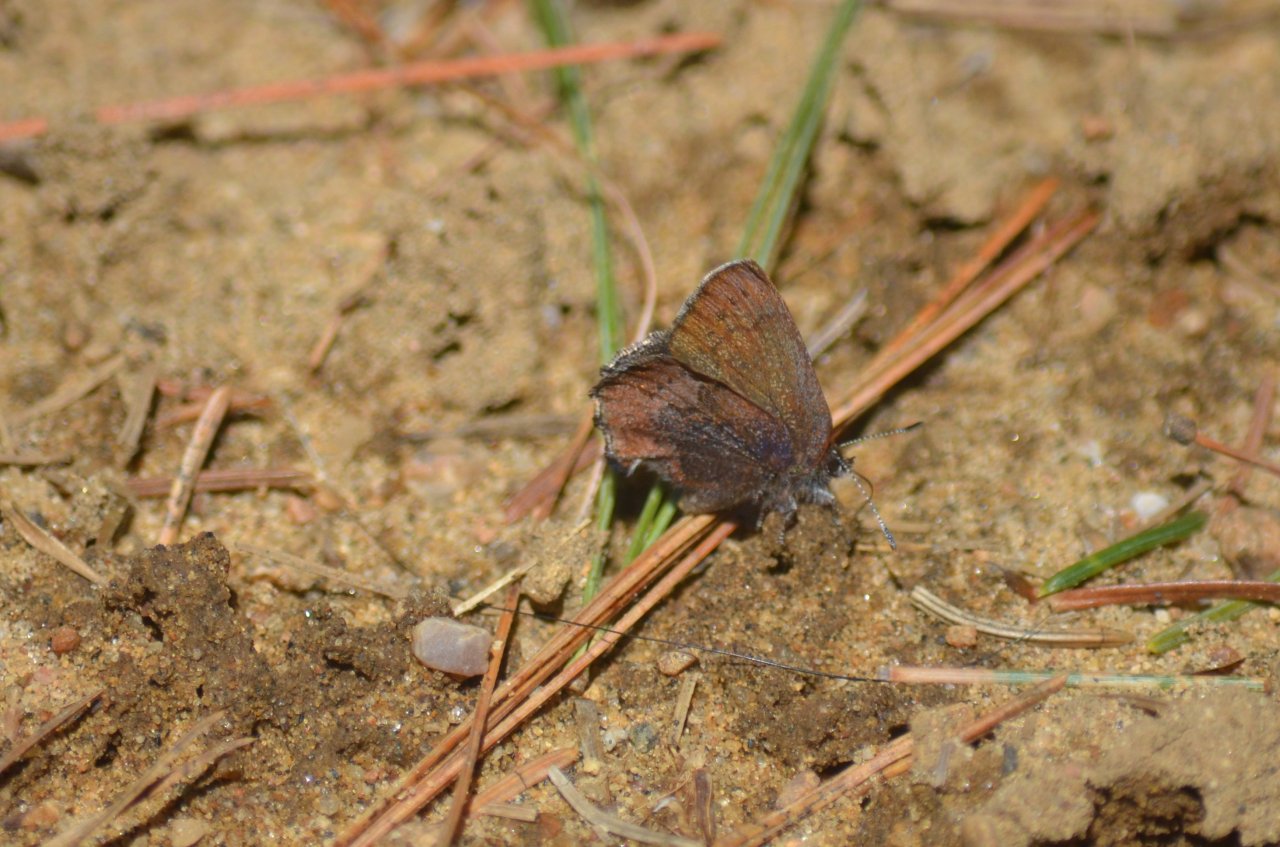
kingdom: Animalia
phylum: Arthropoda
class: Insecta
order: Lepidoptera
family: Lycaenidae
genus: Incisalia
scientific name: Incisalia irioides
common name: Brown Elfin
